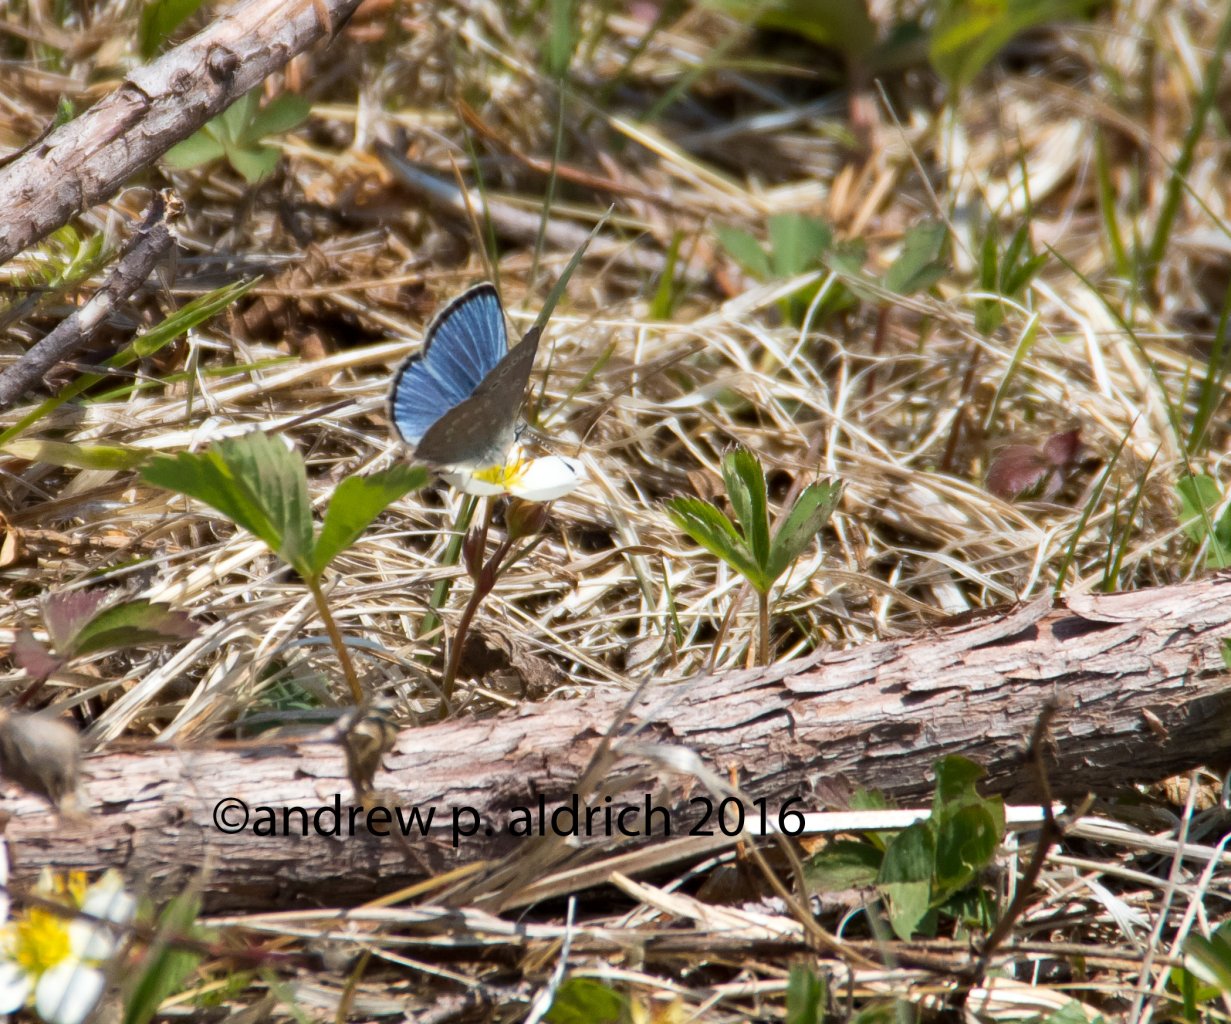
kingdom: Animalia
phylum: Arthropoda
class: Insecta
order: Lepidoptera
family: Lycaenidae
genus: Glaucopsyche
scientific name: Glaucopsyche lygdamus
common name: Silvery Blue
